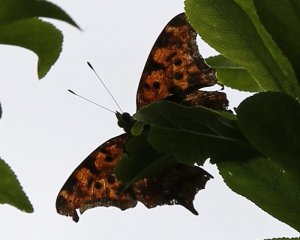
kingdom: Animalia
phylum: Arthropoda
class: Insecta
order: Lepidoptera
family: Nymphalidae
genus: Polygonia
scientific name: Polygonia interrogationis
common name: Question Mark
